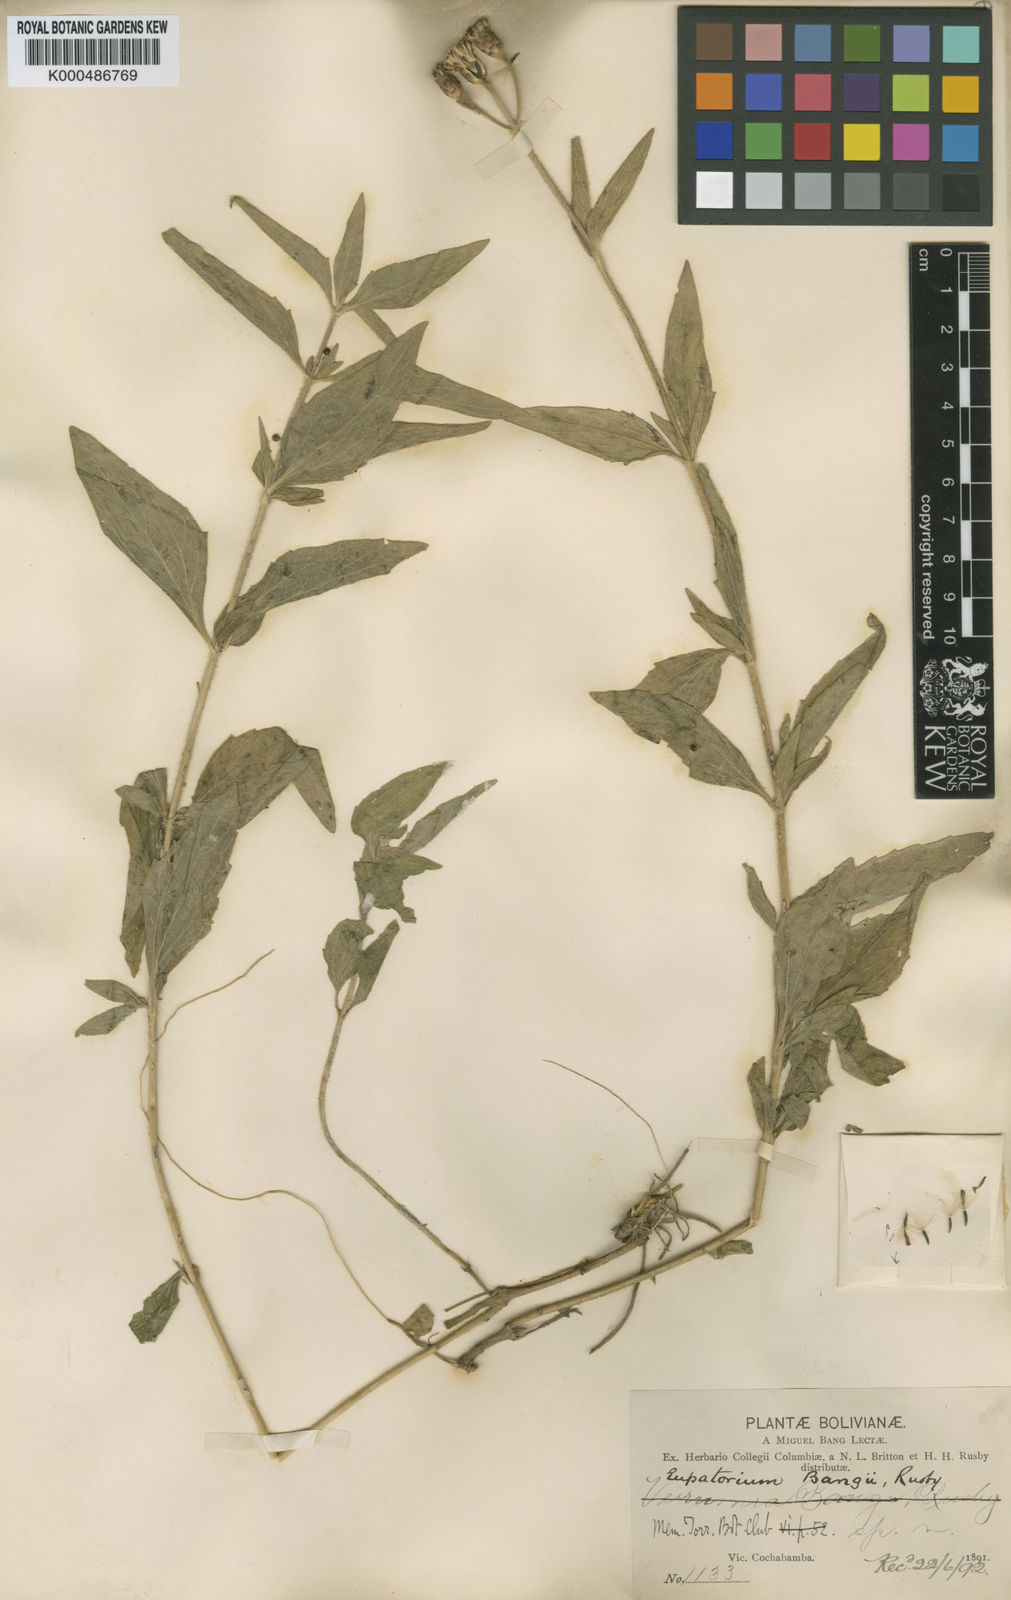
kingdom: Plantae
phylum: Tracheophyta
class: Magnoliopsida
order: Asterales
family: Asteraceae
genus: Chromolaena
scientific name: Chromolaena bangii
